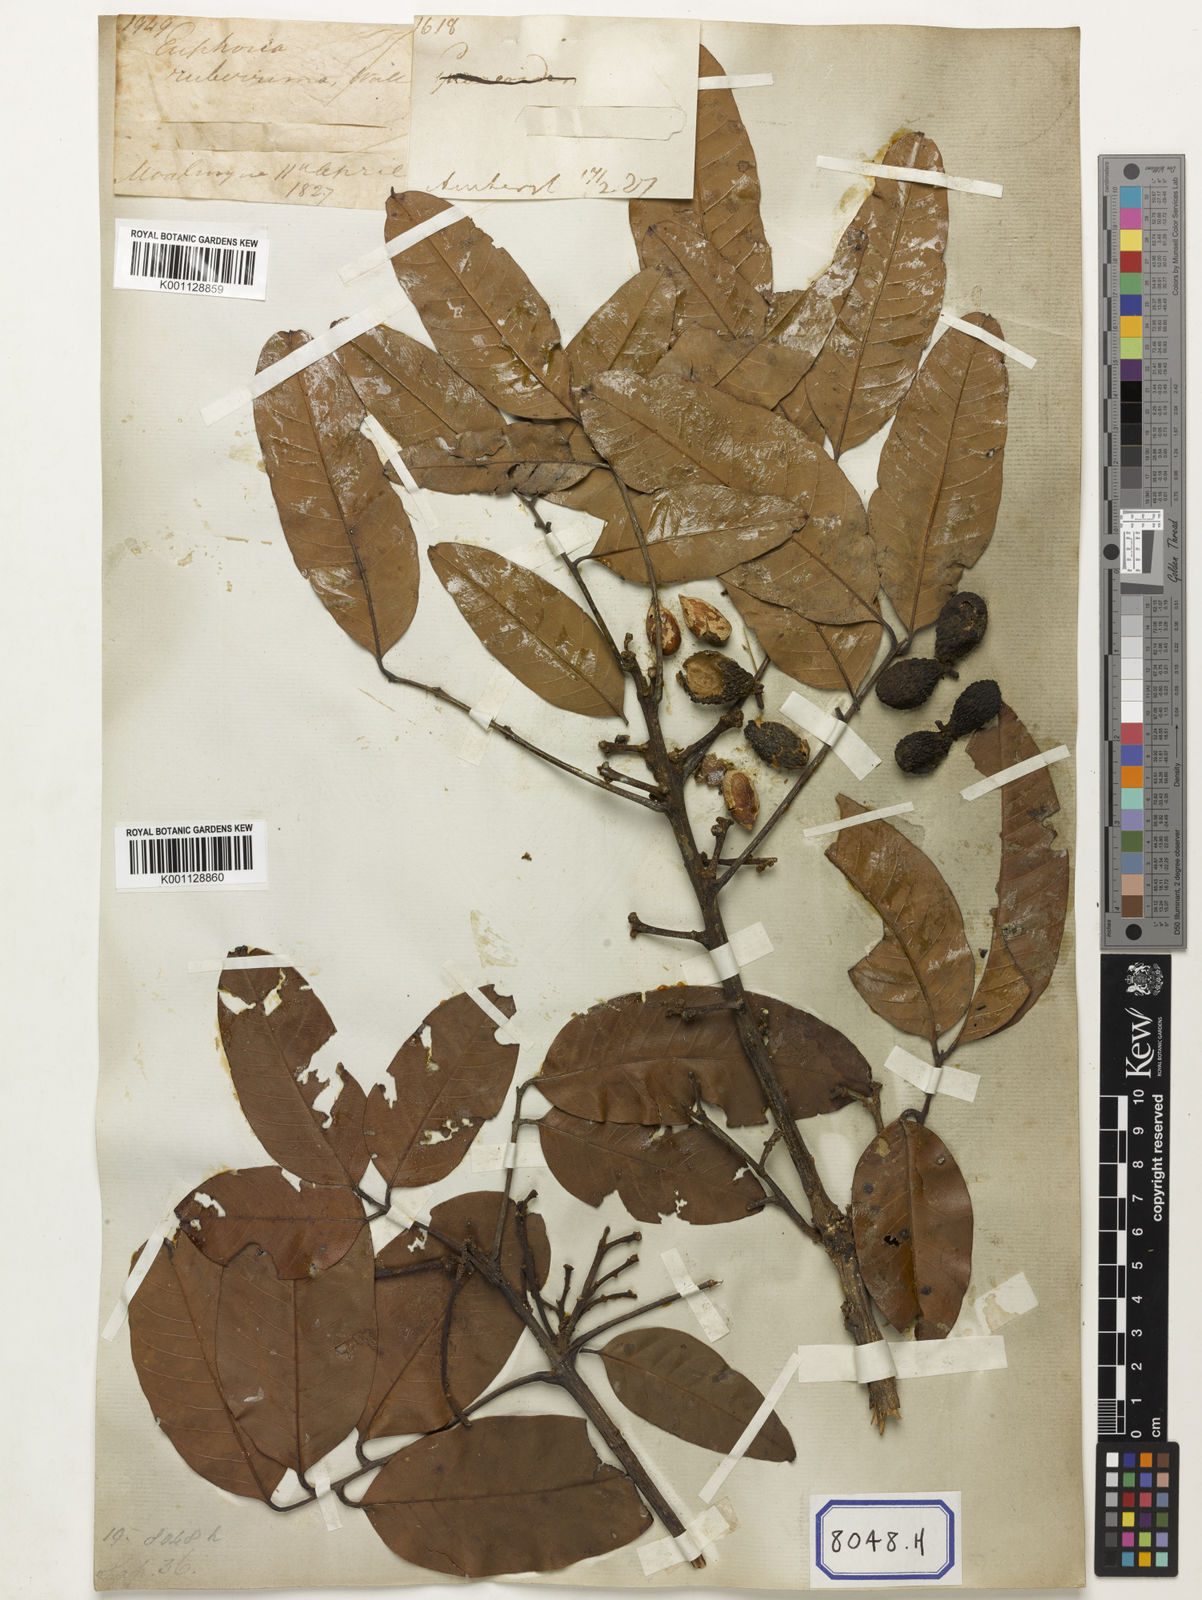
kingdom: Animalia
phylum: Arthropoda
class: Insecta
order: Coleoptera
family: Scarabaeidae
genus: Euphoria
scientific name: Euphoria
